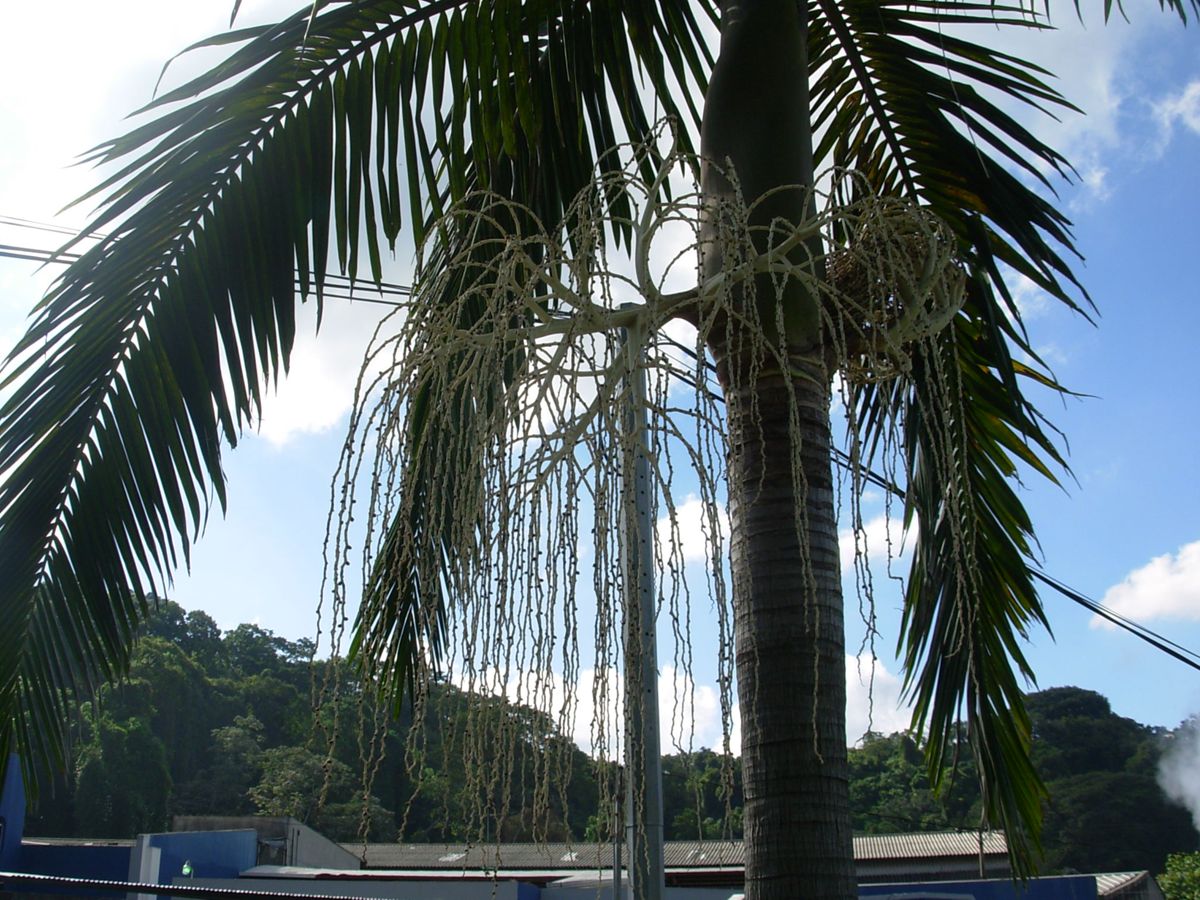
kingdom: Plantae
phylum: Tracheophyta
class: Liliopsida
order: Arecales
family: Arecaceae
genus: Veitchia
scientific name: Veitchia
